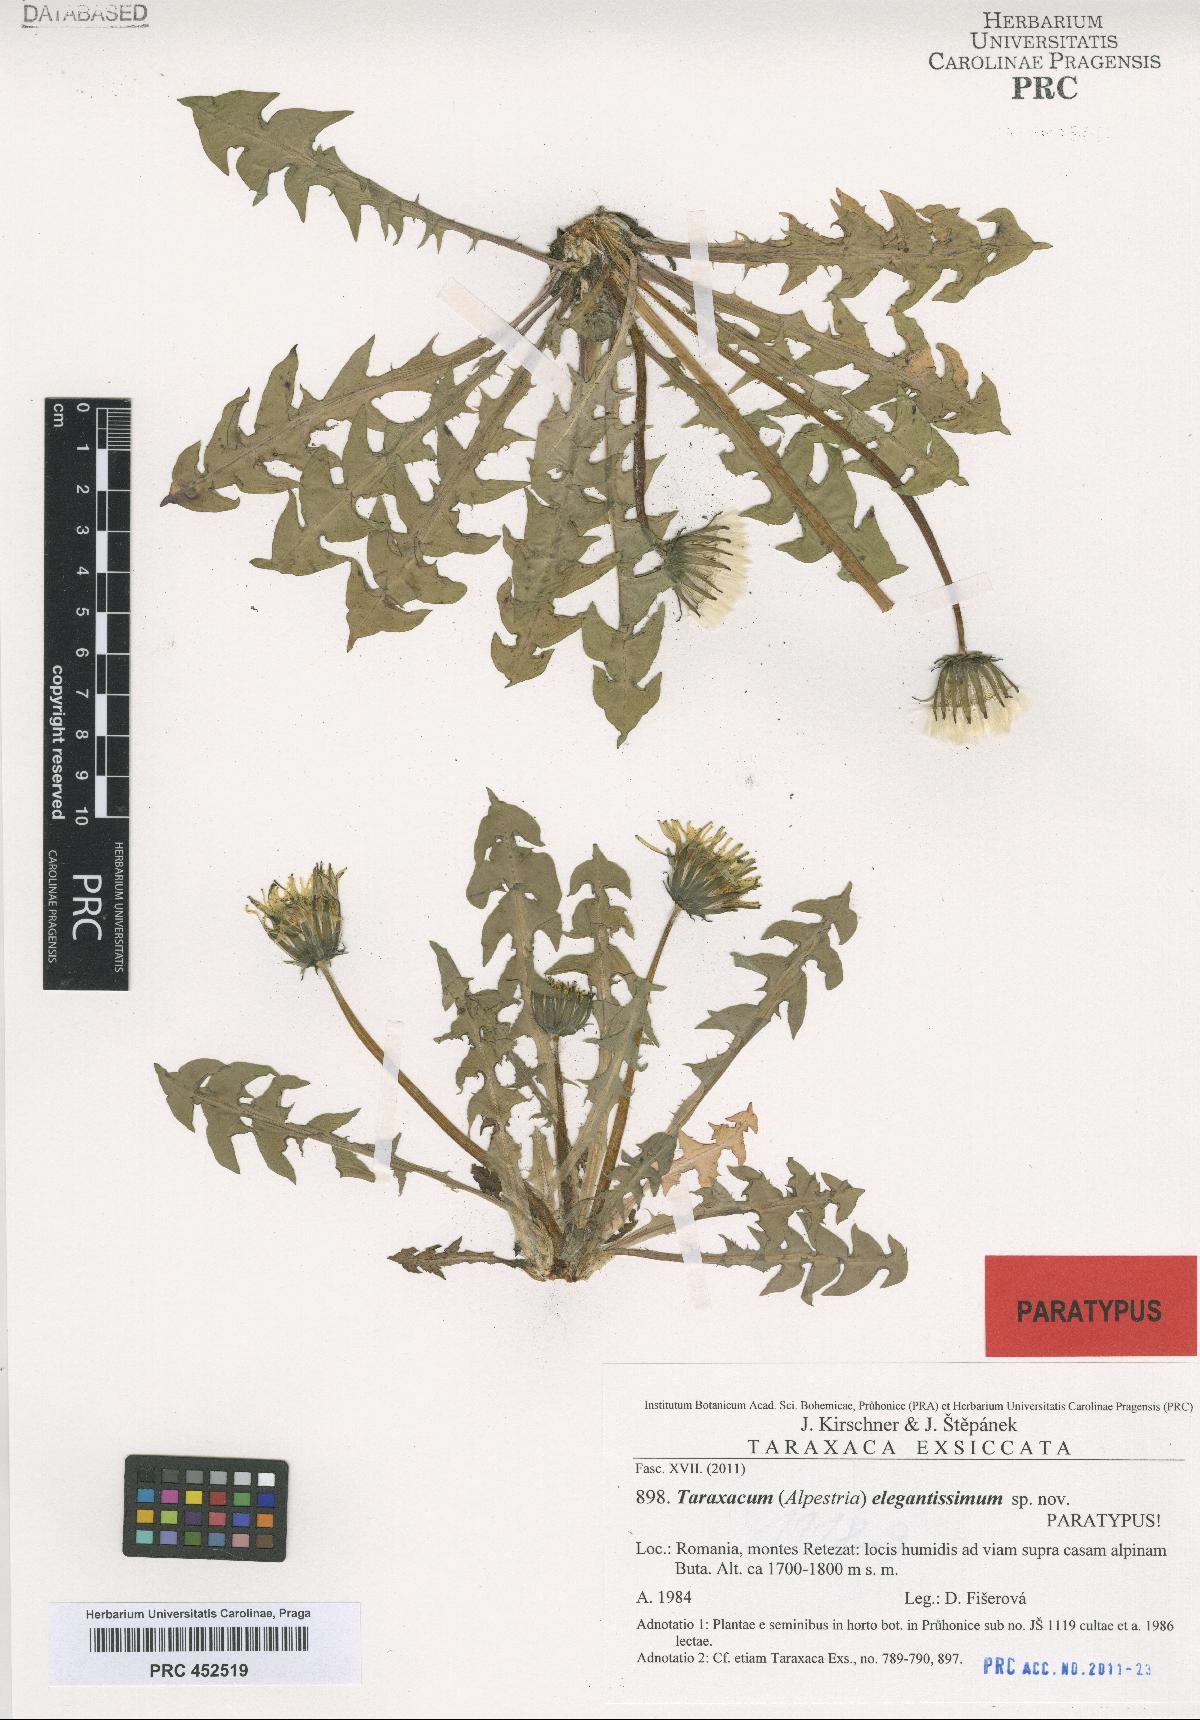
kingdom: Plantae
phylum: Tracheophyta
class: Magnoliopsida
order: Asterales
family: Asteraceae
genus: Taraxacum
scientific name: Taraxacum elegantissimum
